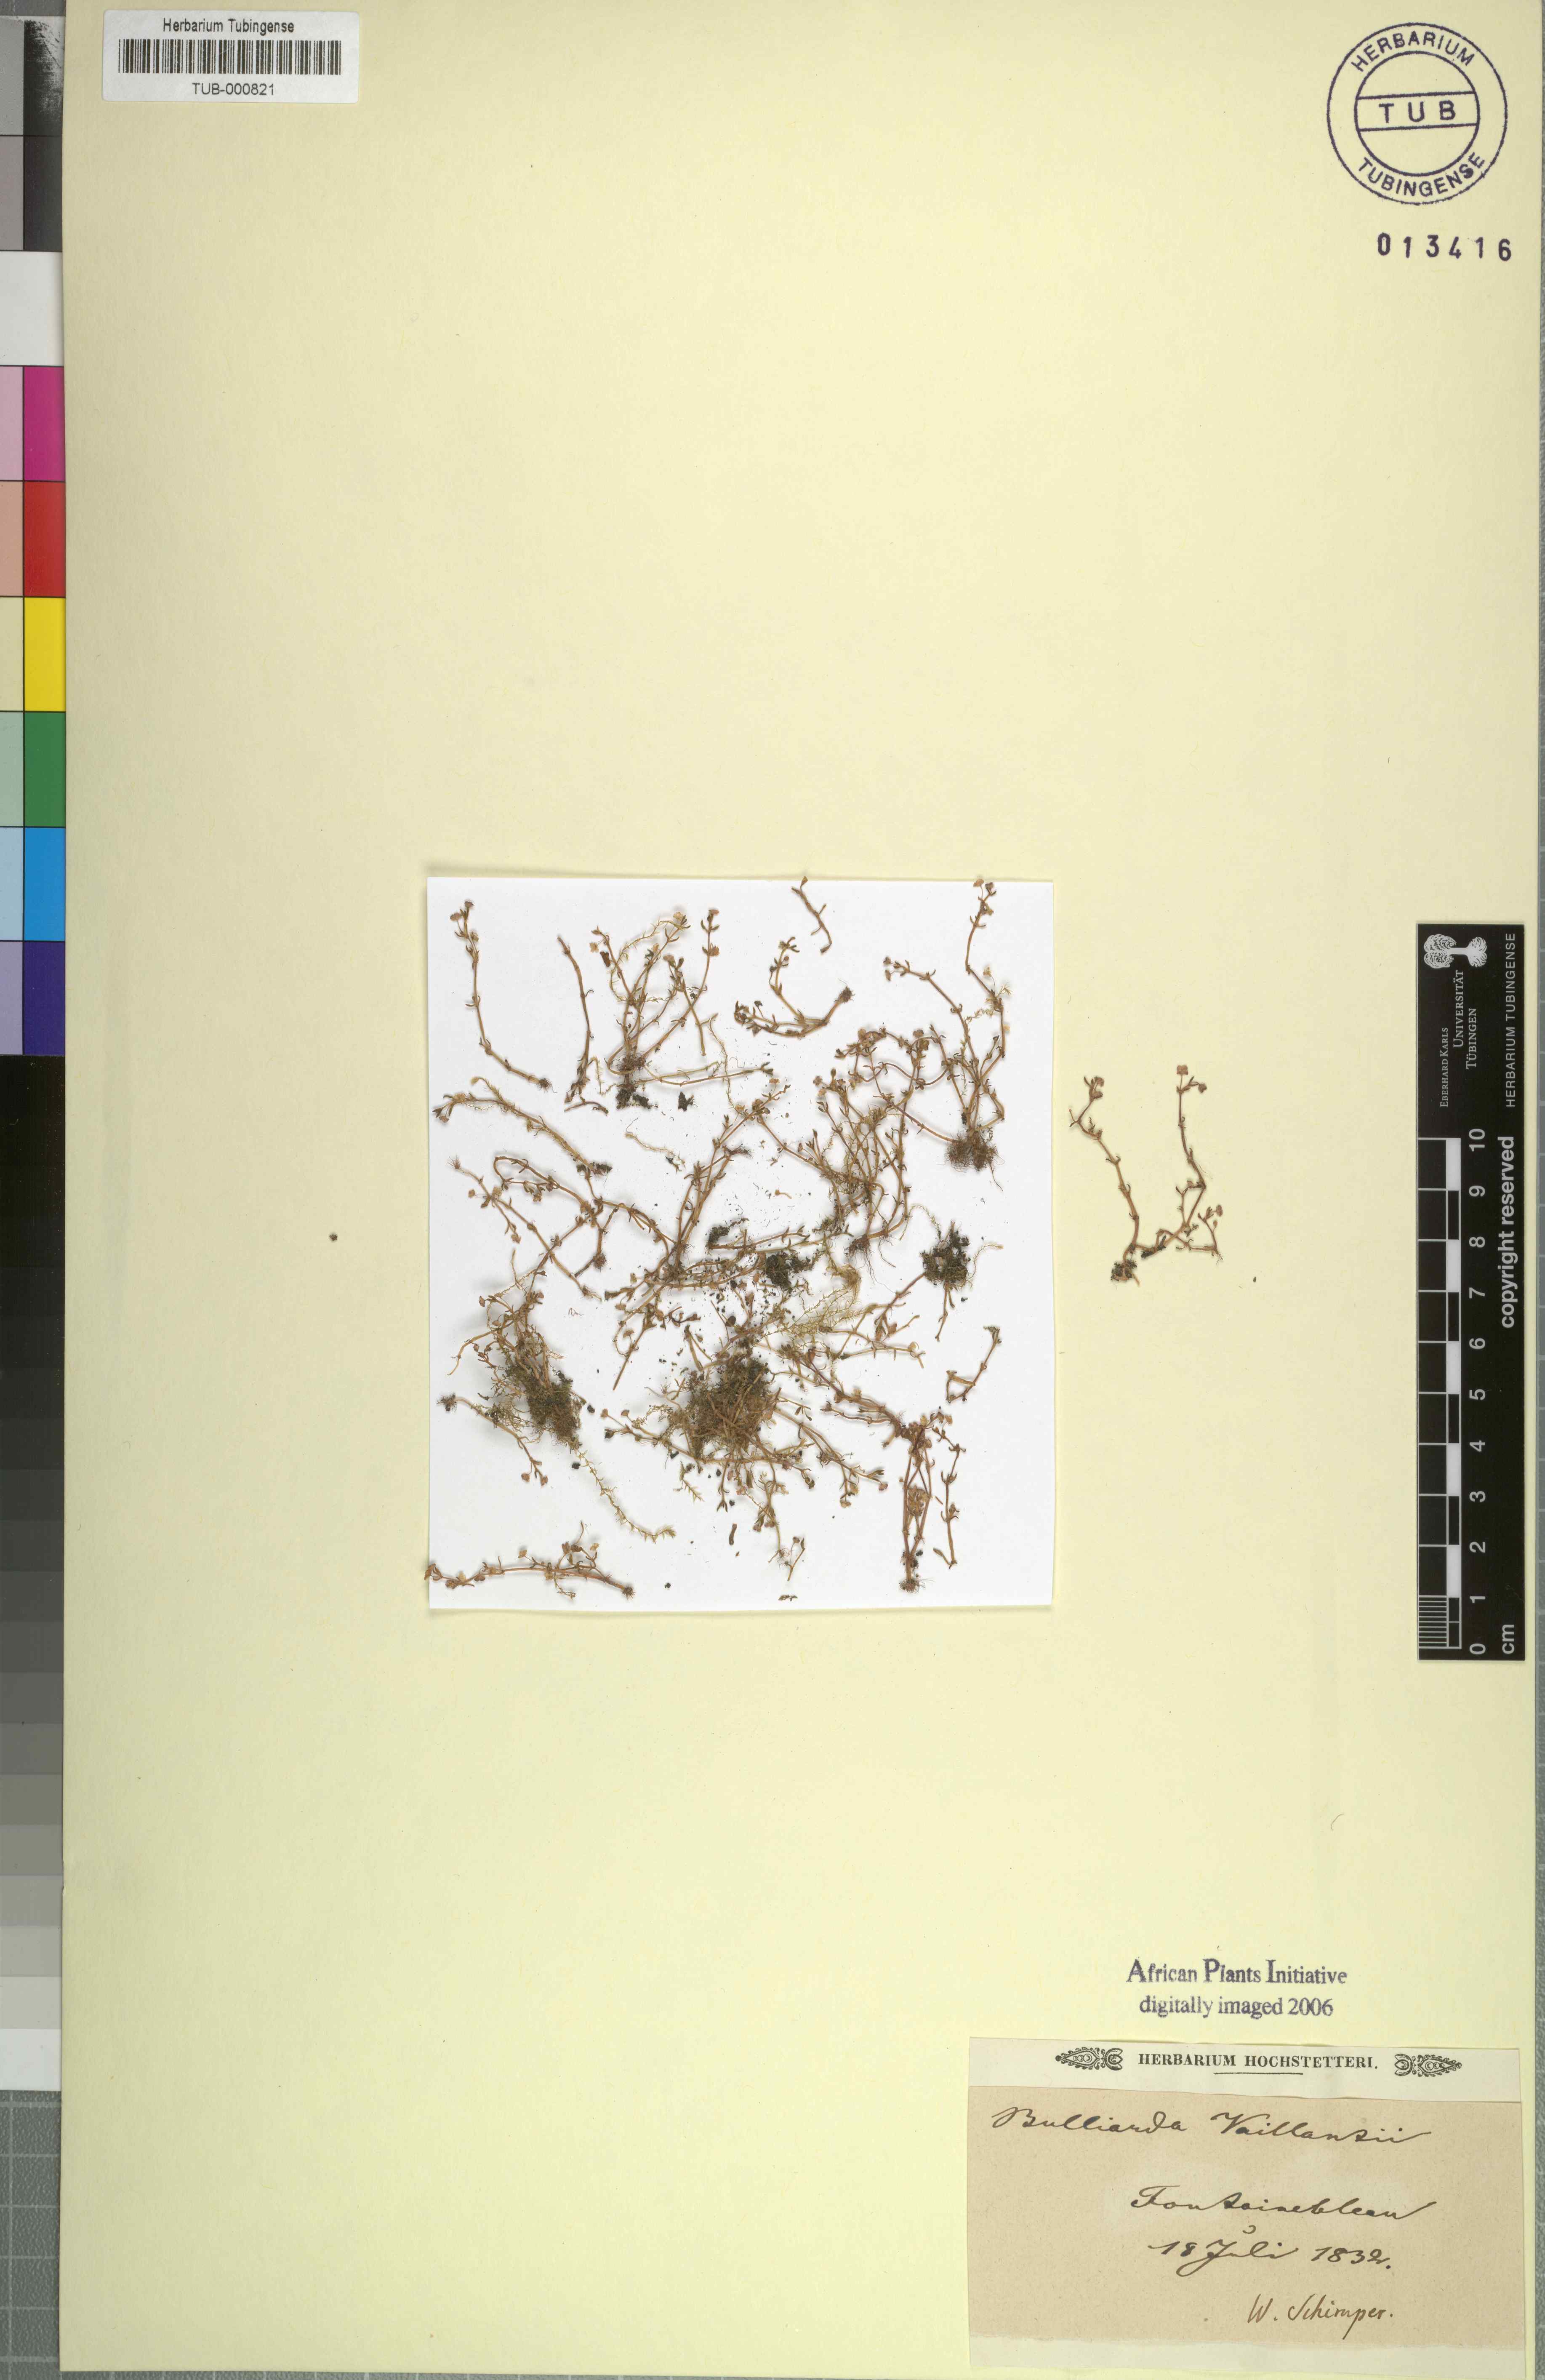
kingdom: Plantae
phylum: Tracheophyta
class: Magnoliopsida
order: Saxifragales
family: Crassulaceae
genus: Crassula
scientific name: Crassula vaillantii
